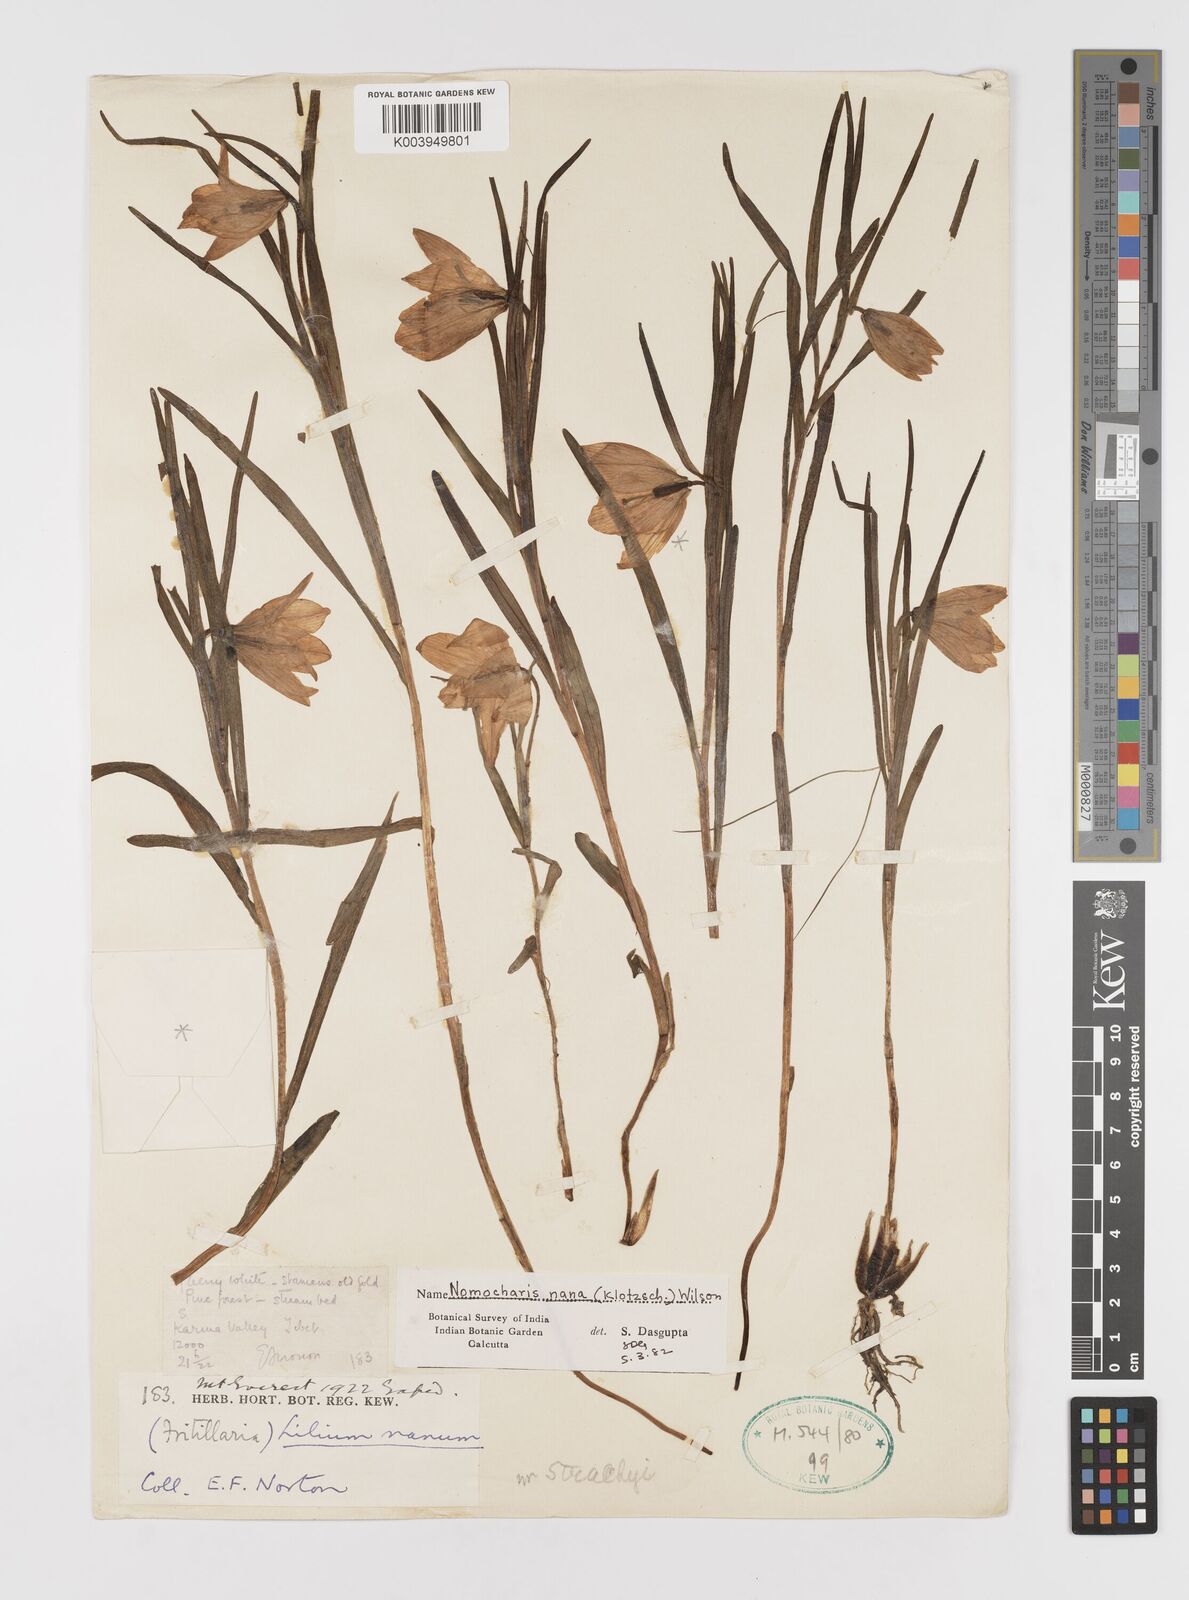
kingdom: Plantae
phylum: Tracheophyta
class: Liliopsida
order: Liliales
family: Liliaceae
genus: Lilium
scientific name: Lilium nanum
